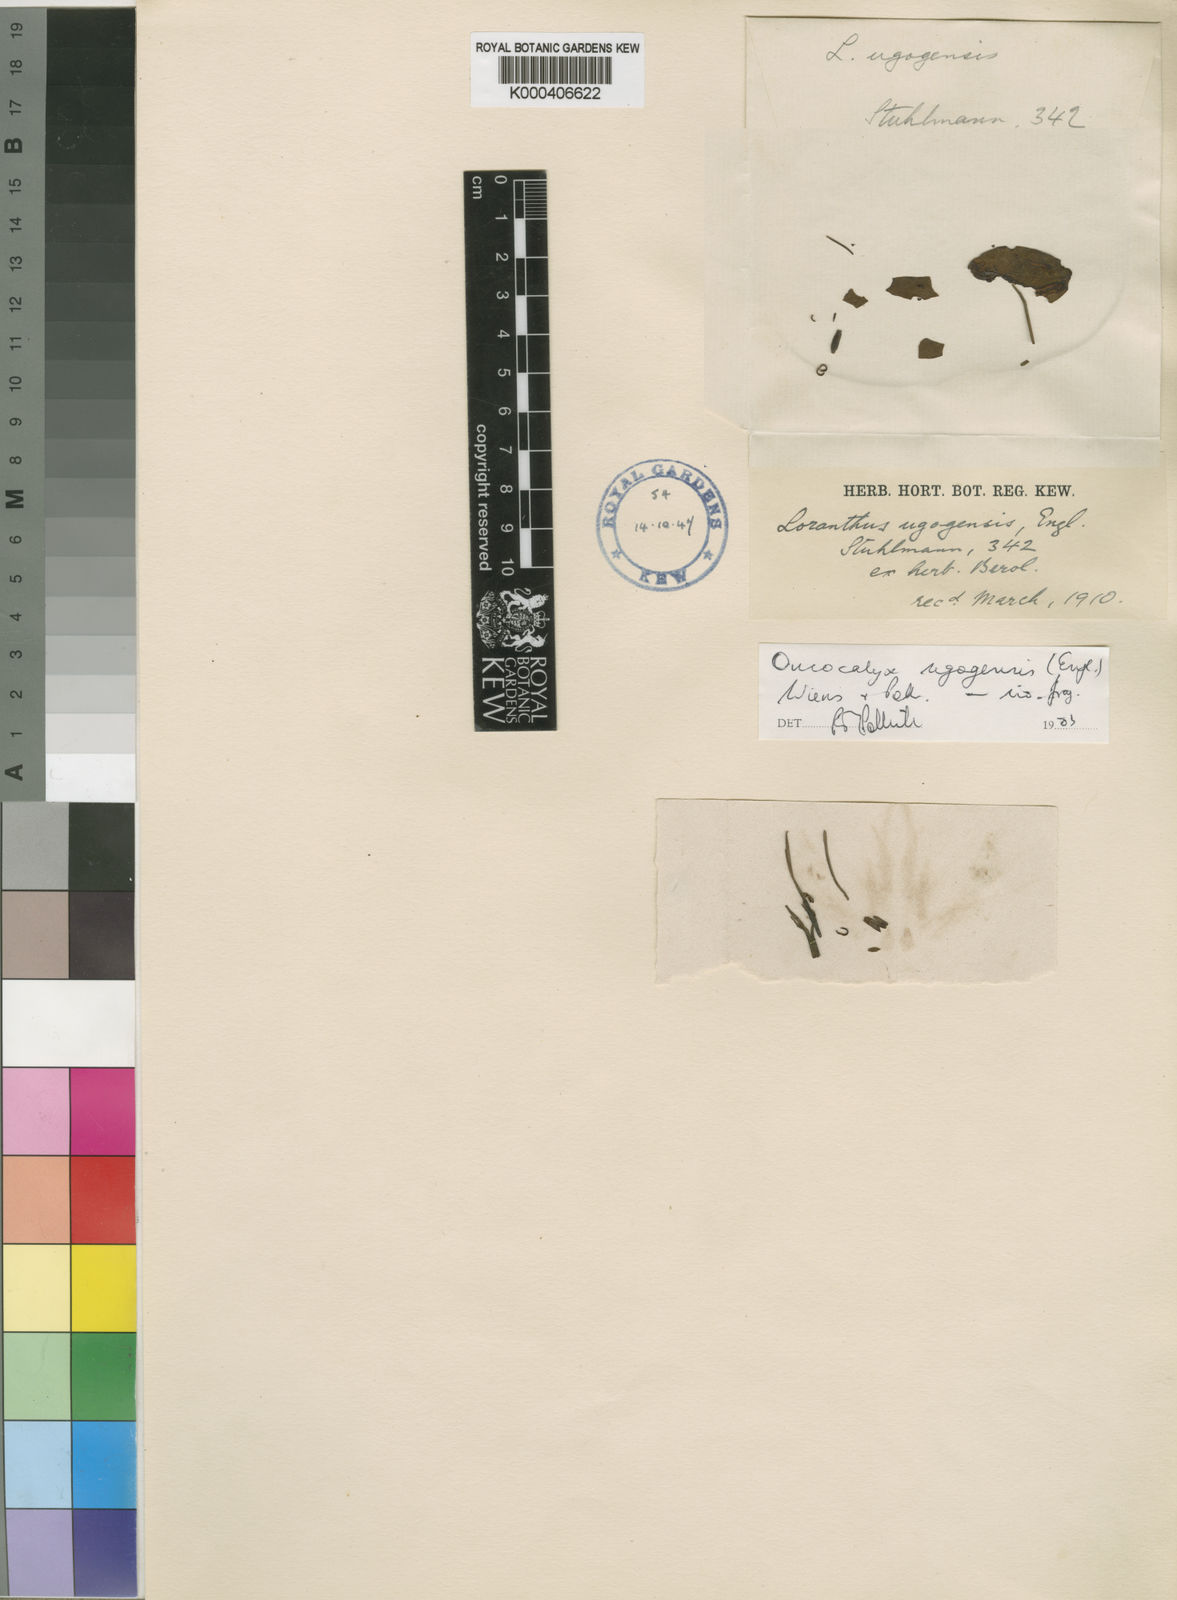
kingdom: Plantae
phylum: Tracheophyta
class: Magnoliopsida
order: Santalales
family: Loranthaceae
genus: Oncocalyx
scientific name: Oncocalyx ugogensis
